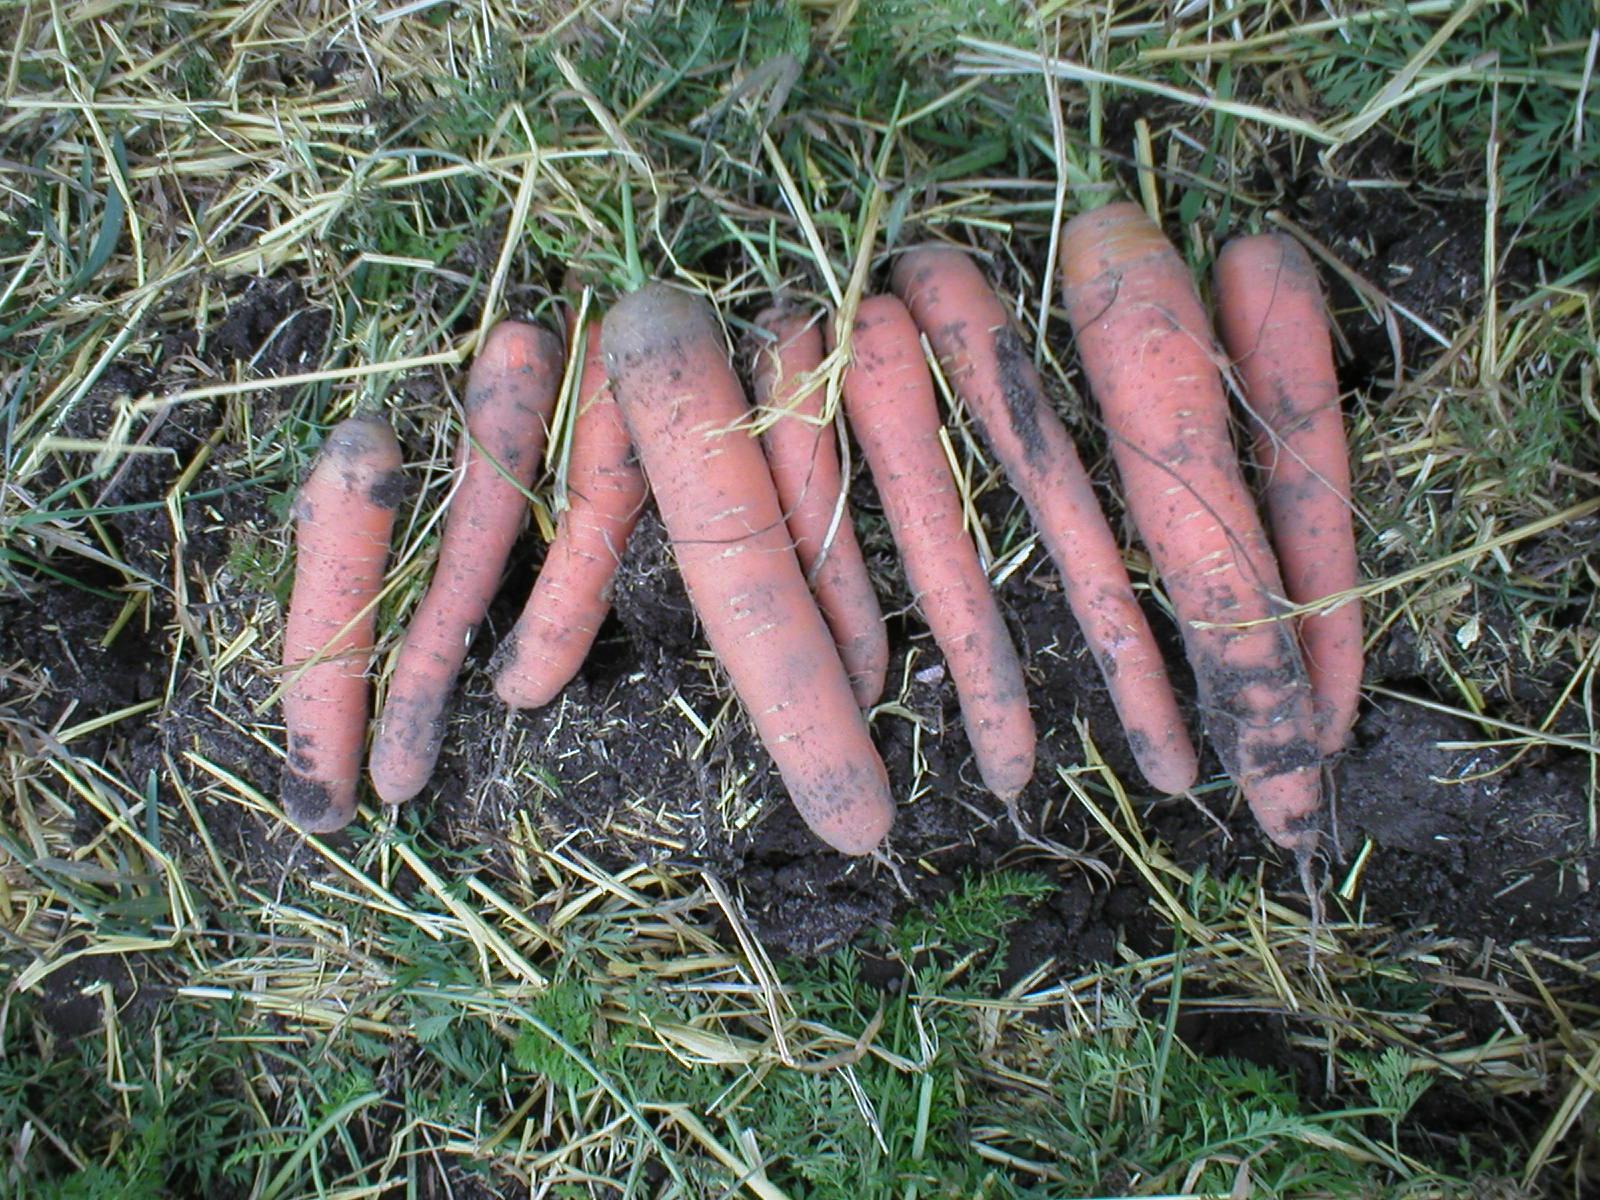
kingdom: Plantae
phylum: Tracheophyta
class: Magnoliopsida
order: Apiales
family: Apiaceae
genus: Daucus
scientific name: Daucus carota
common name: Wild carrot
